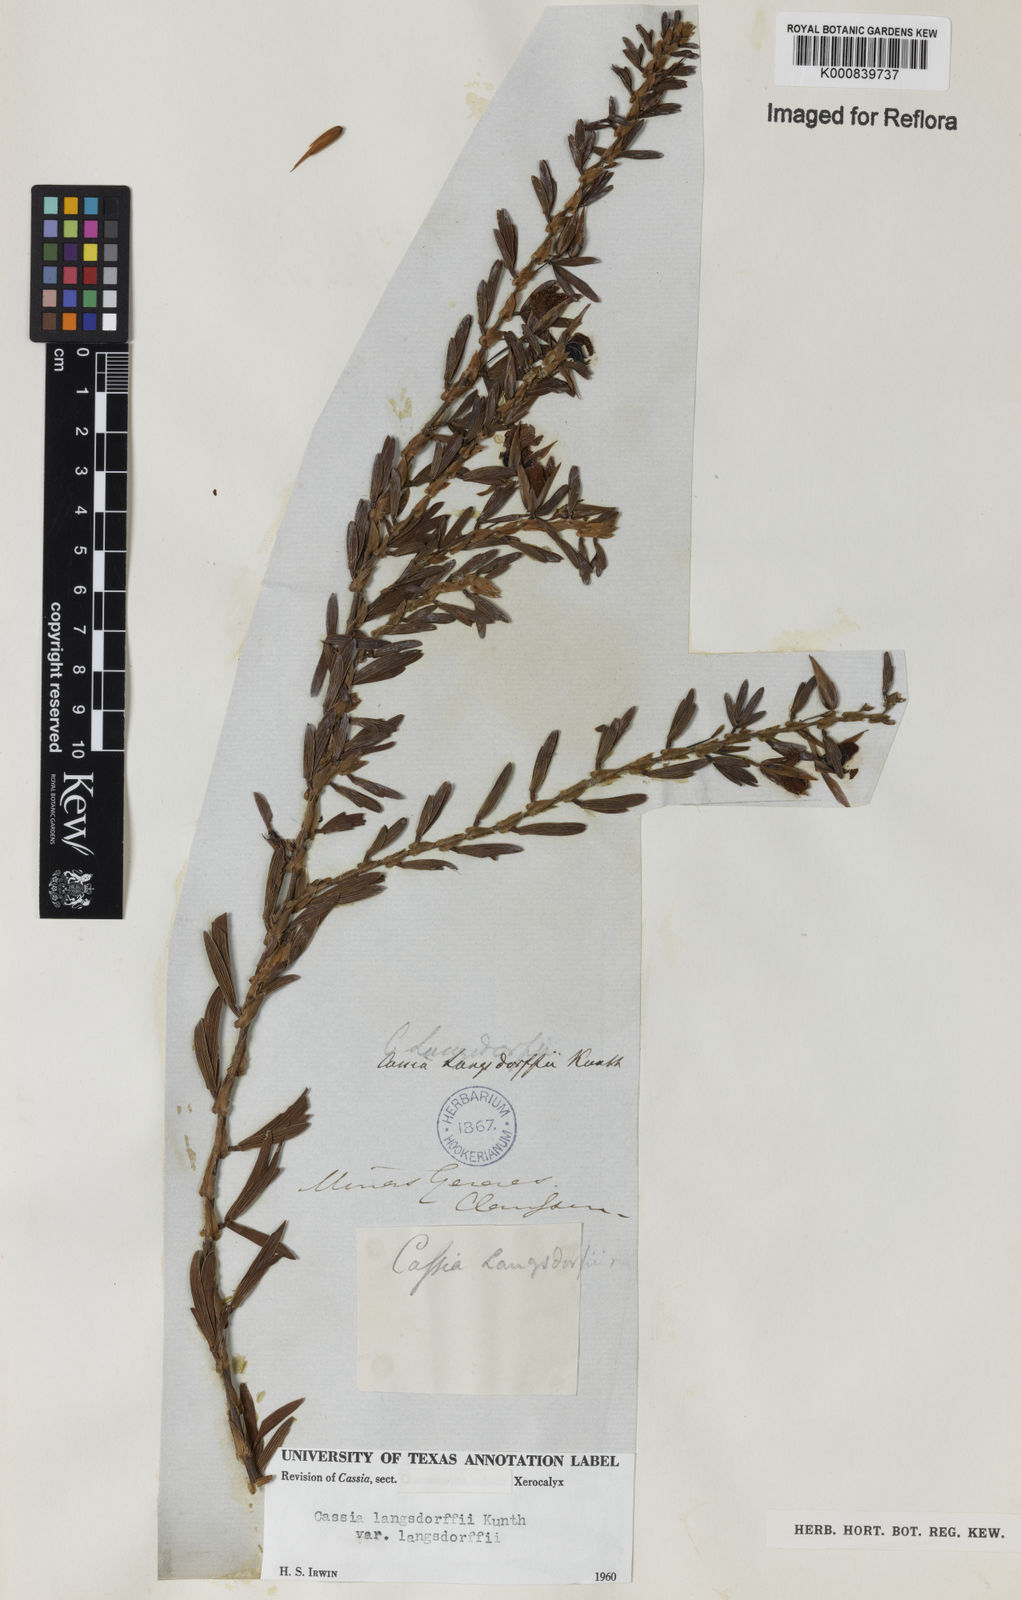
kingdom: Plantae
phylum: Tracheophyta
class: Magnoliopsida
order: Fabales
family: Fabaceae
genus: Chamaecrista
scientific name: Chamaecrista langsdorffii
